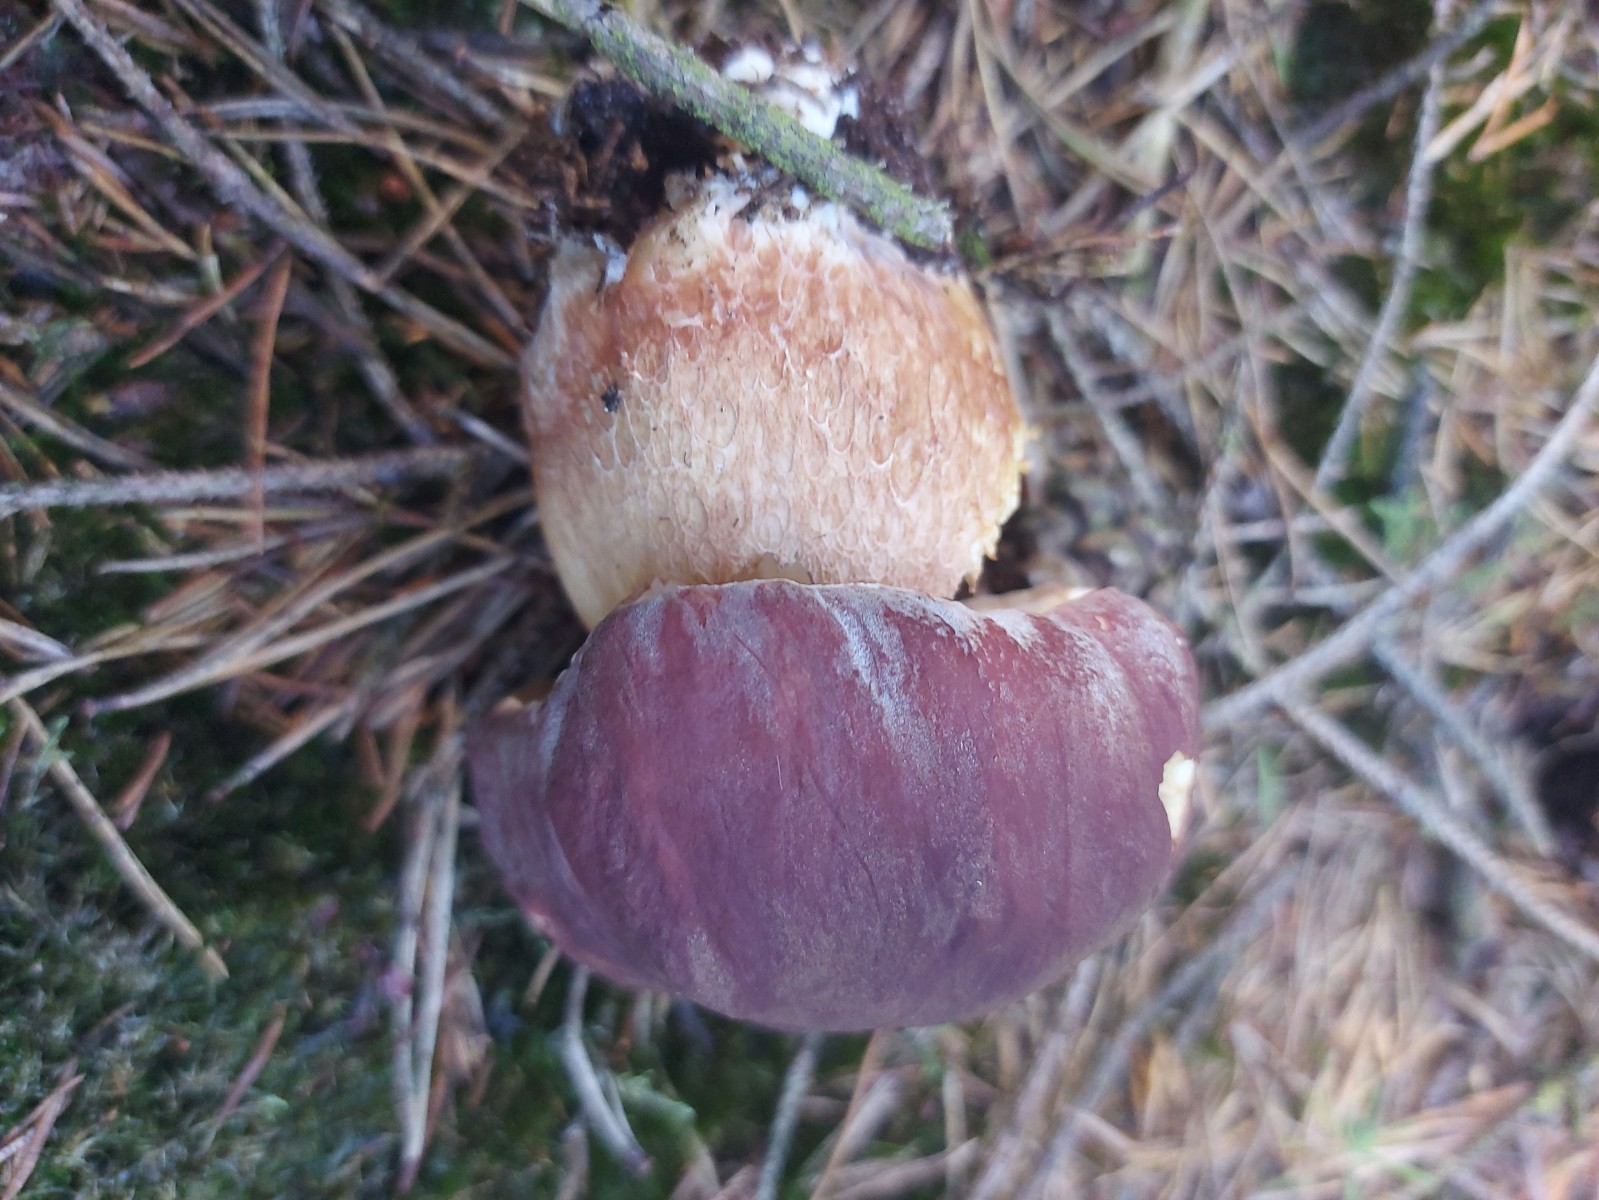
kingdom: Fungi
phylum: Basidiomycota
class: Agaricomycetes
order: Boletales
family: Boletaceae
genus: Boletus
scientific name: Boletus pinophilus
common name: rødbrun rørhat
